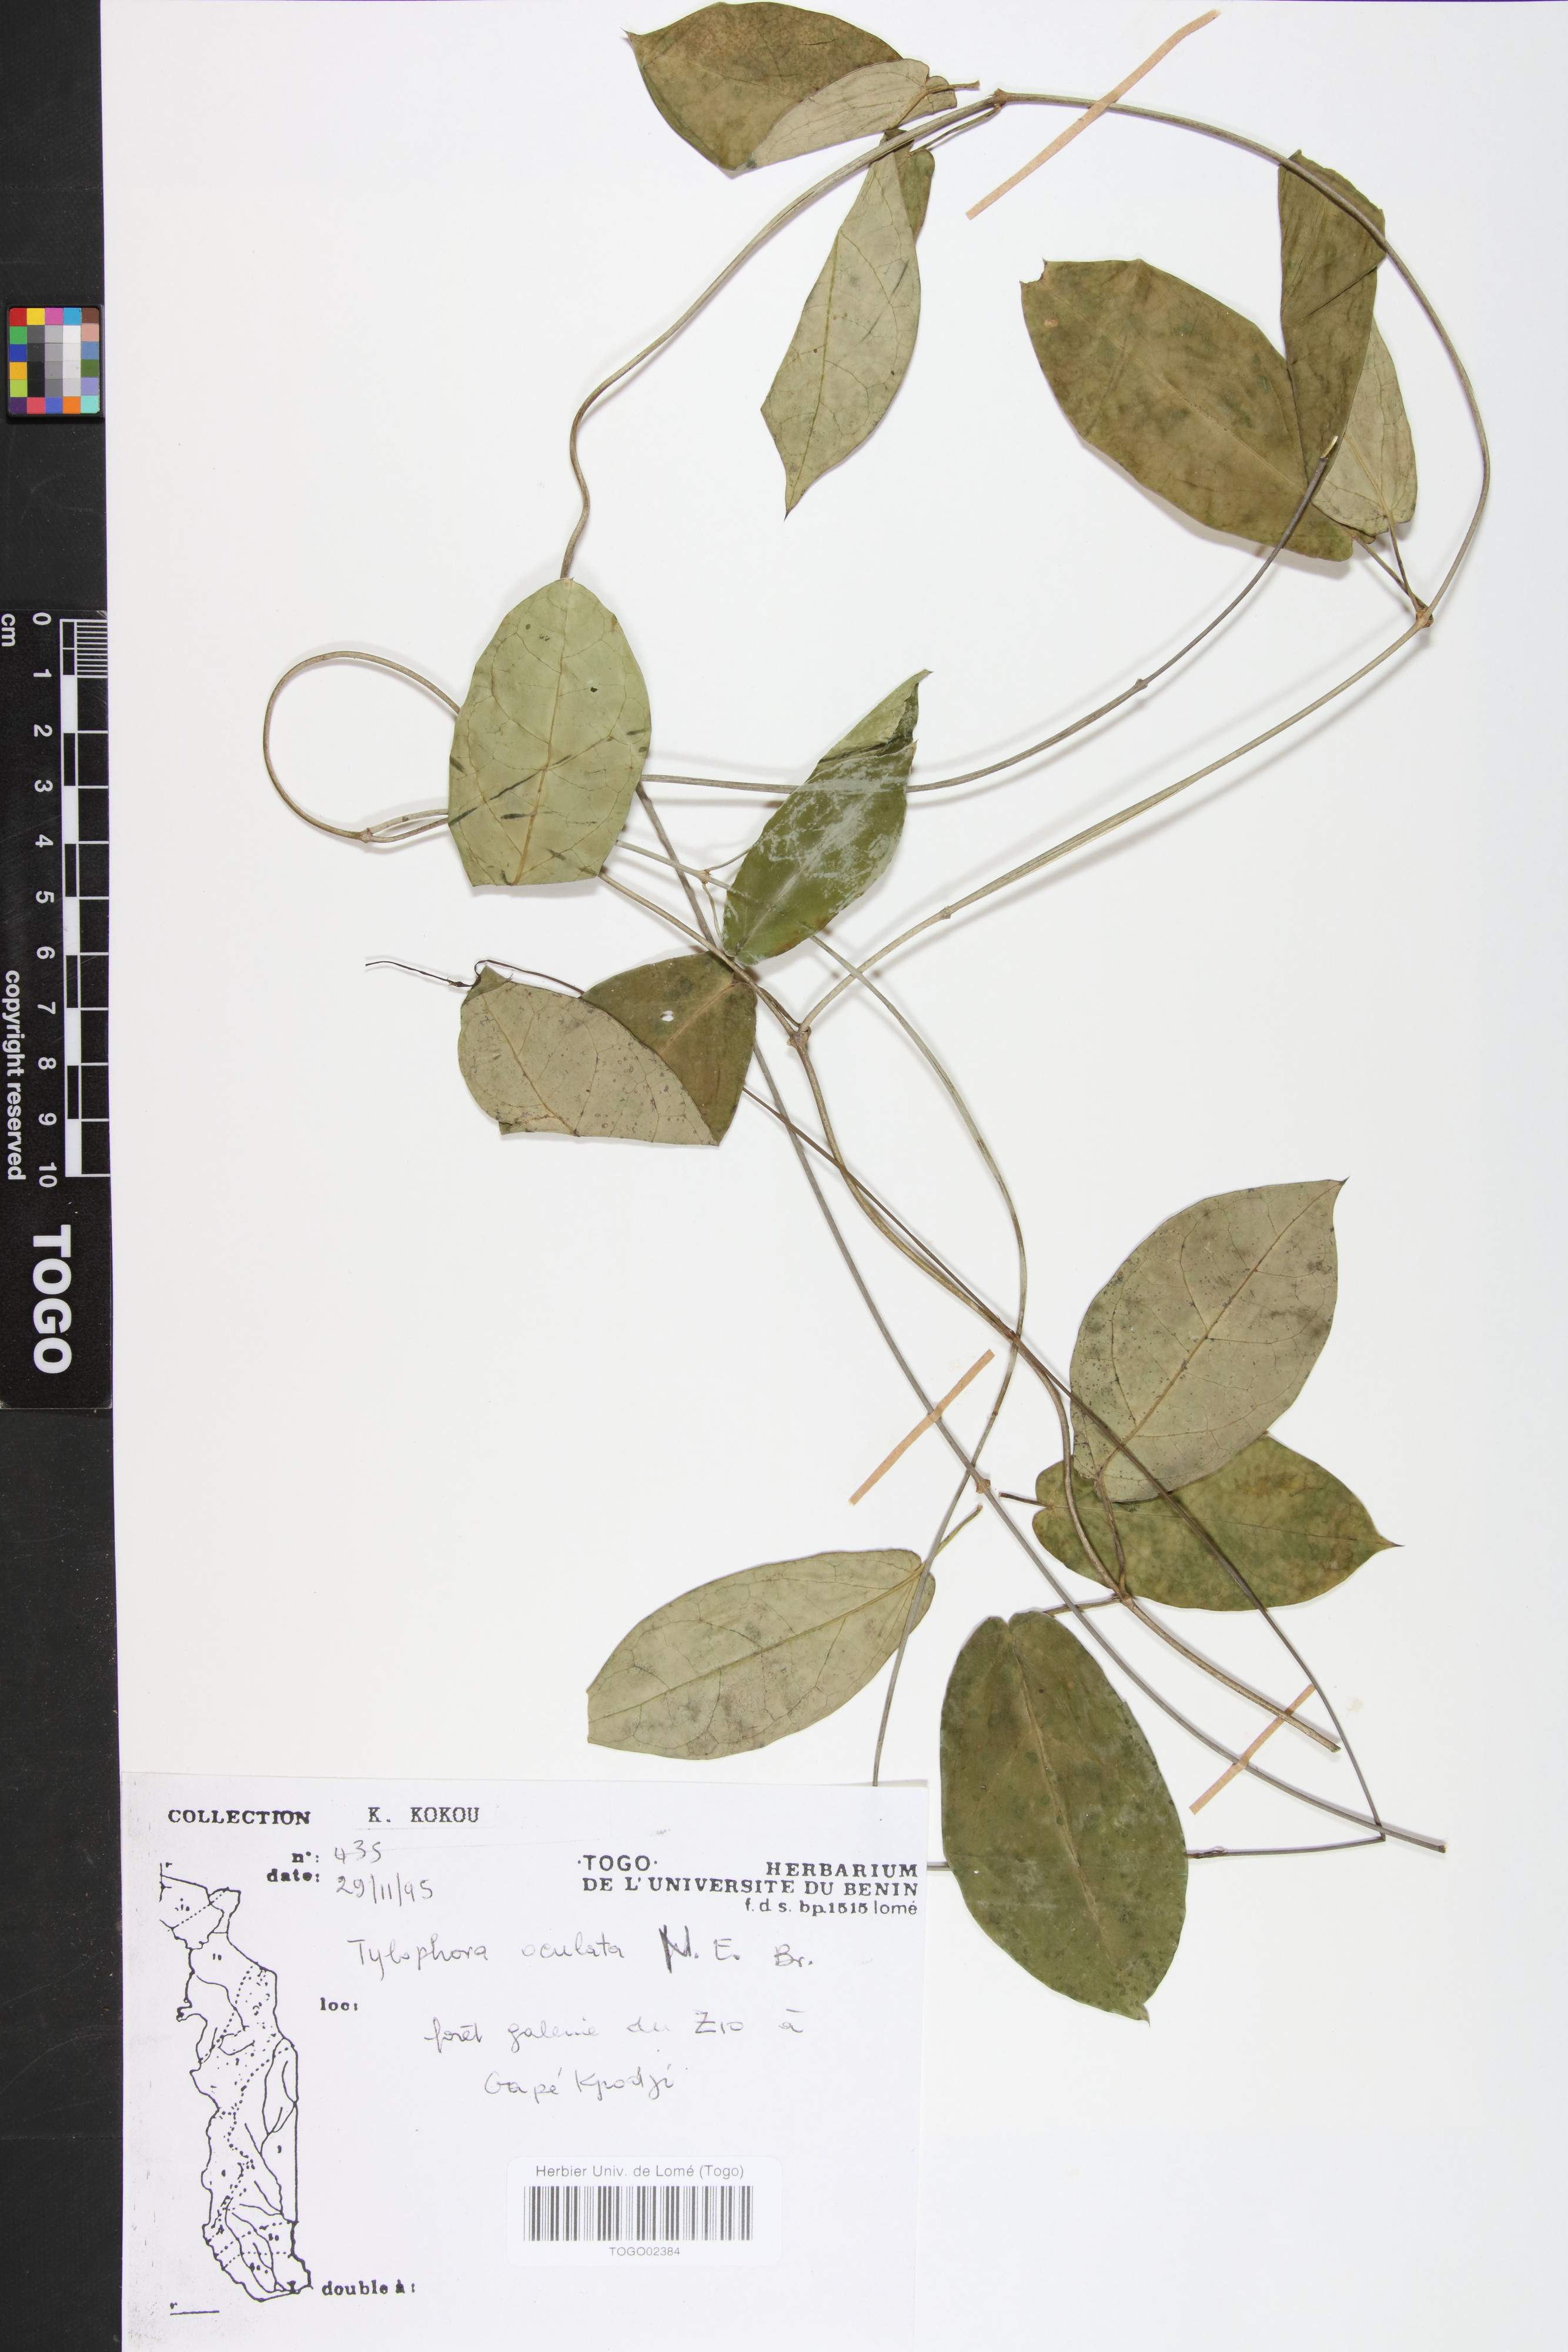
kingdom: Plantae
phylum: Tracheophyta
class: Magnoliopsida
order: Gentianales
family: Apocynaceae
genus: Vincetoxicum
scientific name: Vincetoxicum oculatum
